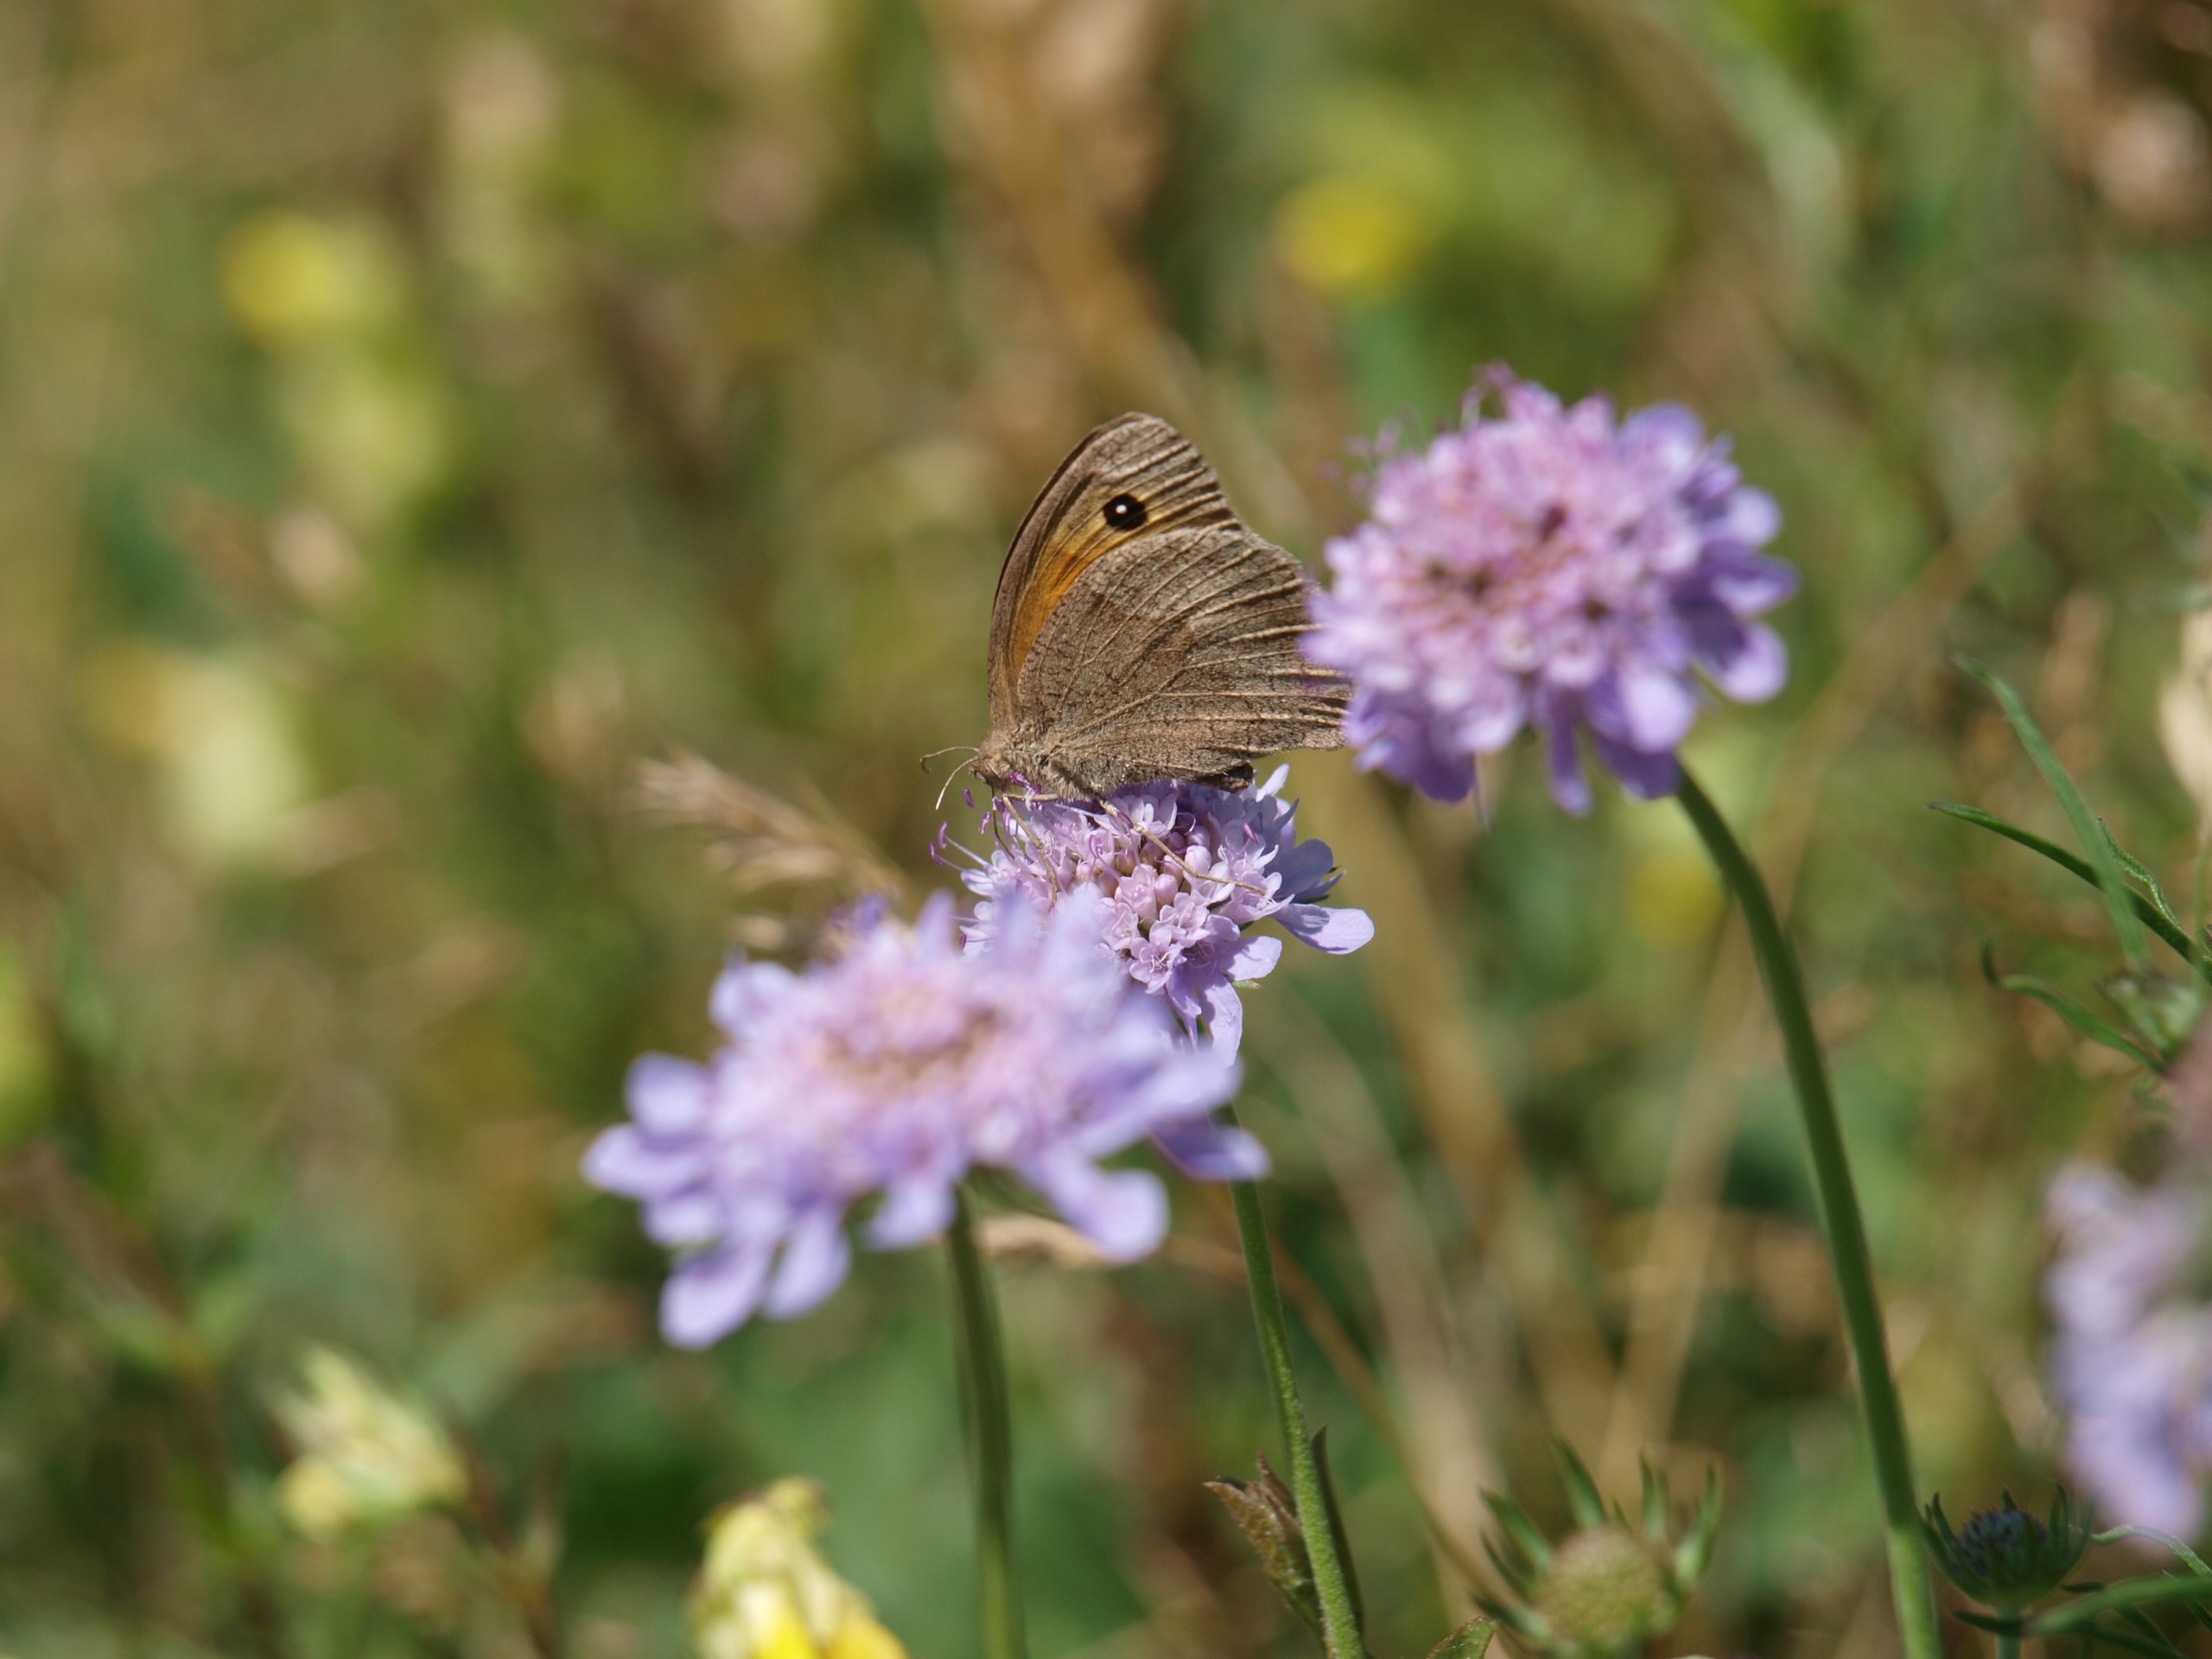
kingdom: Animalia
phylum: Arthropoda
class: Insecta
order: Lepidoptera
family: Nymphalidae
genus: Maniola
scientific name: Maniola jurtina
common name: Græsrandøje
